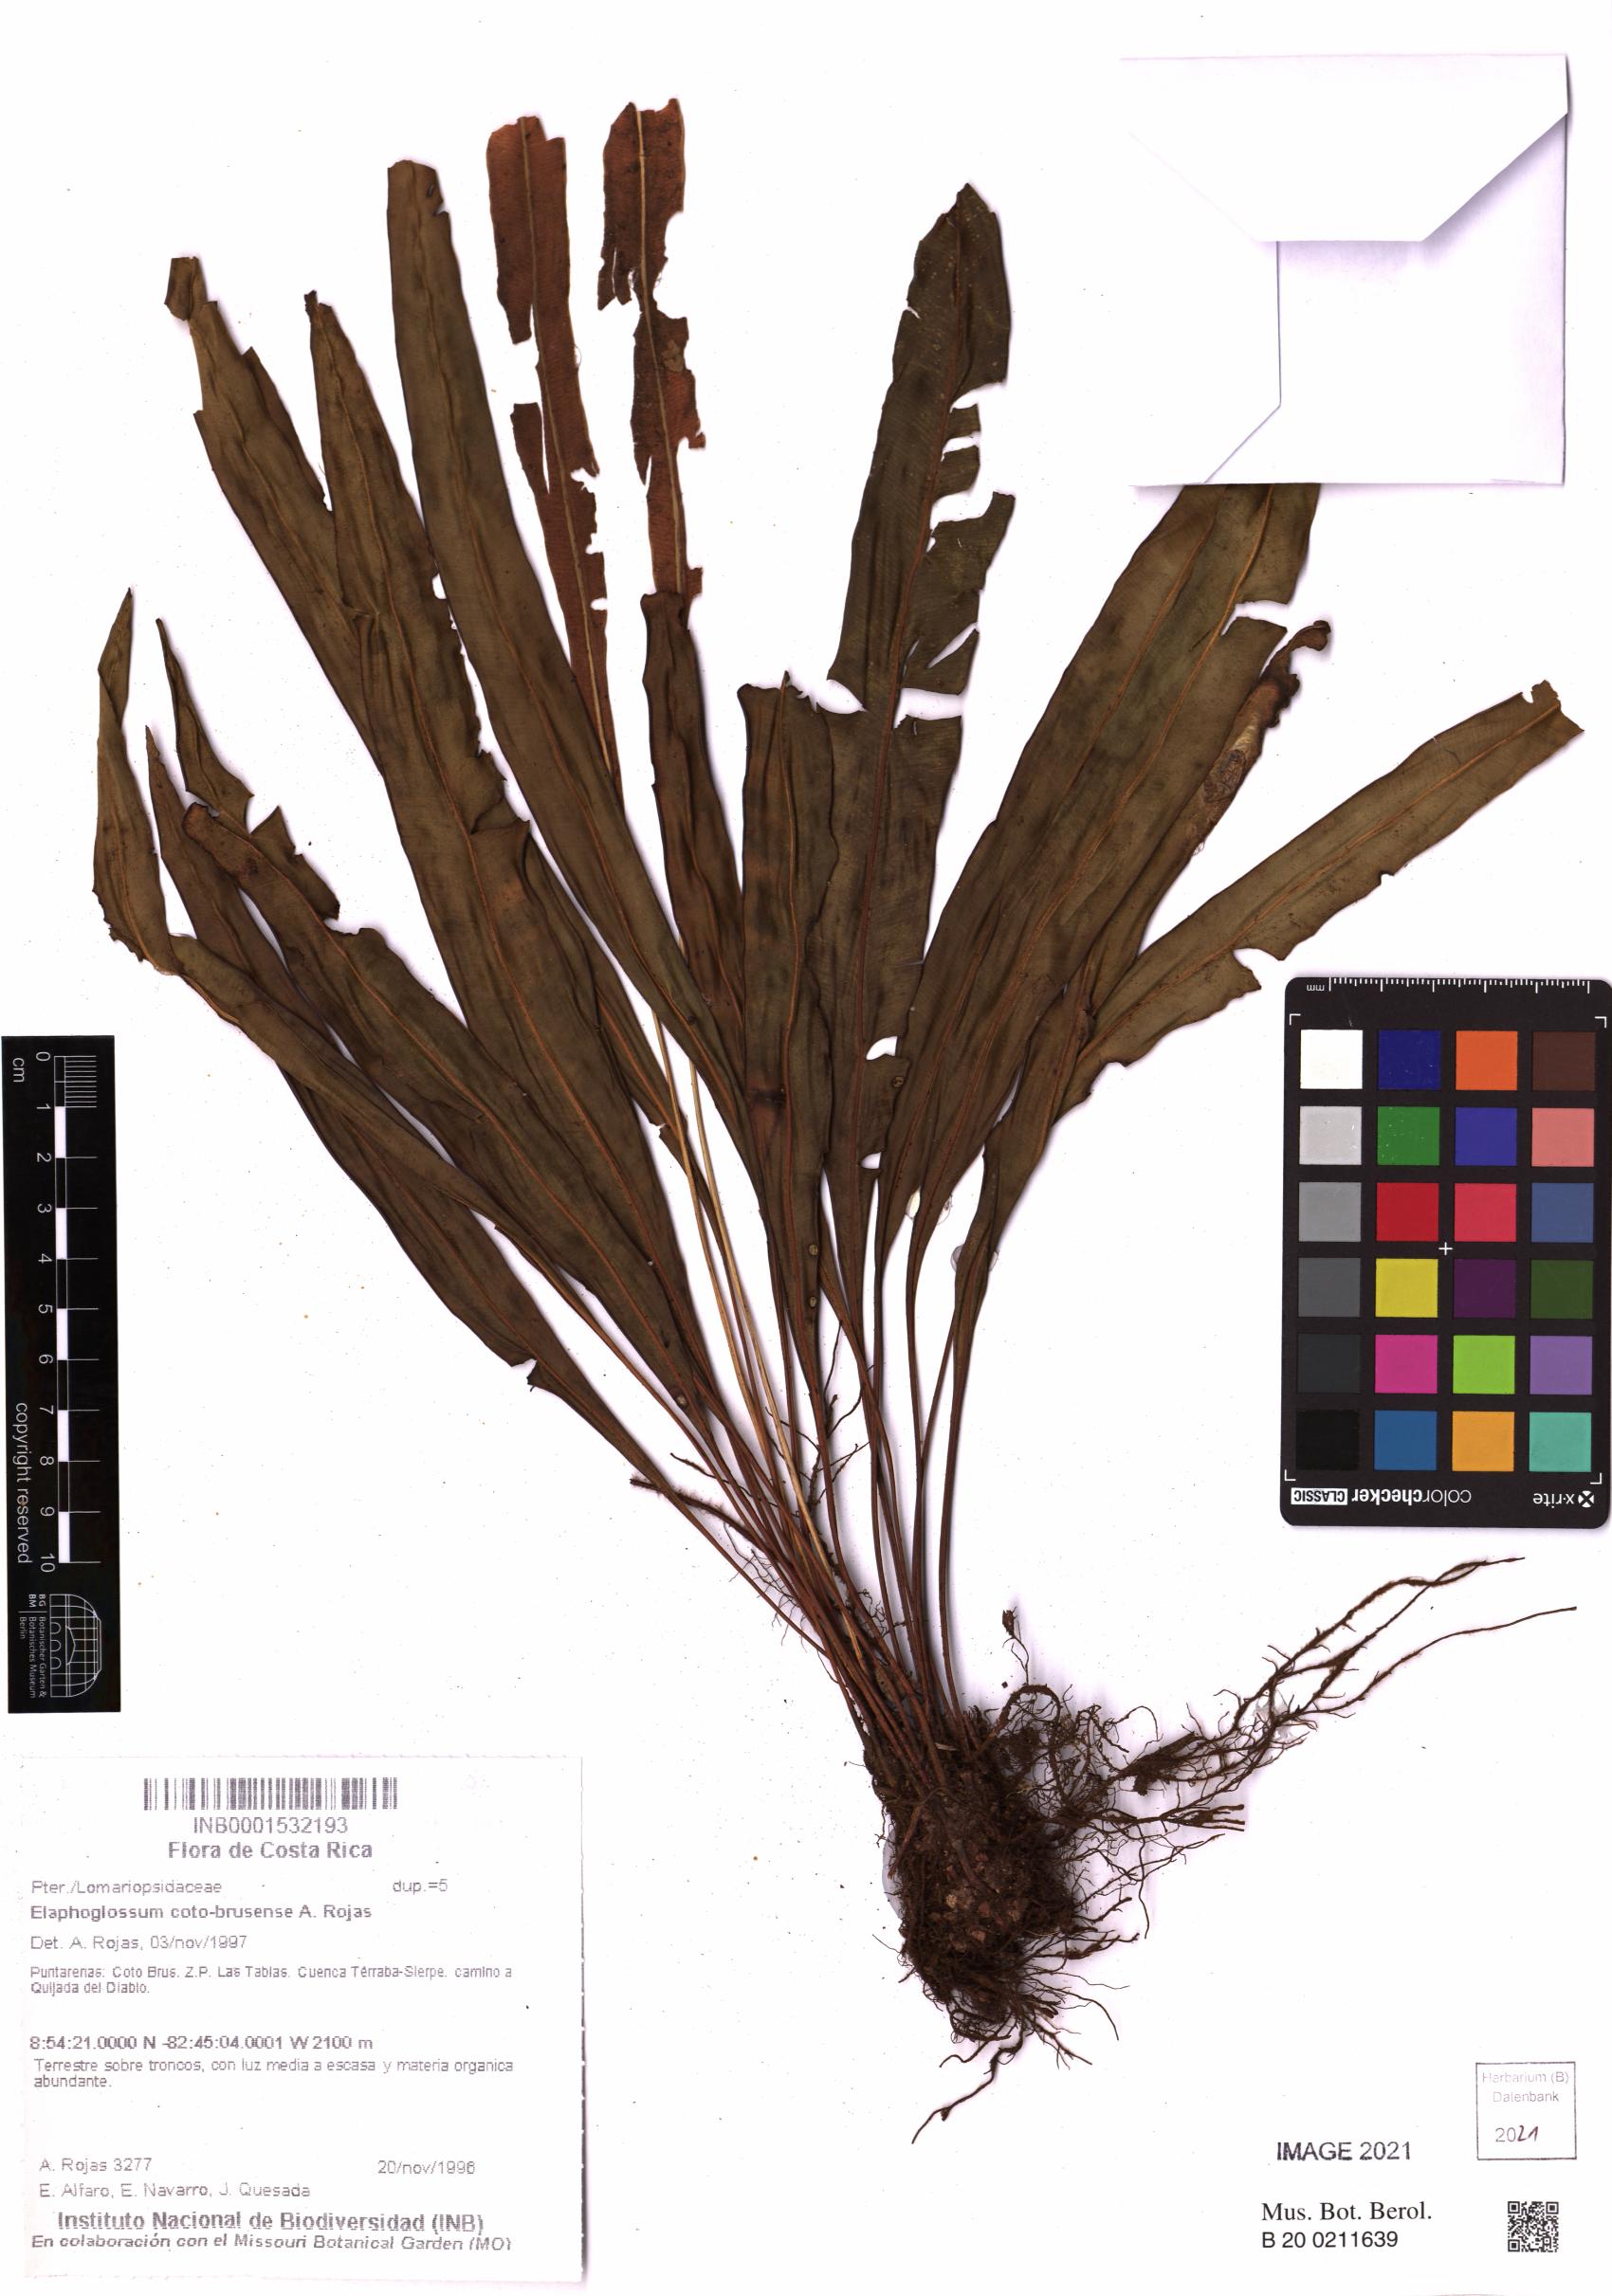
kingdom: Plantae
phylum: Tracheophyta
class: Polypodiopsida
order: Polypodiales
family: Dryopteridaceae
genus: Elaphoglossum
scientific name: Elaphoglossum coto-brusense
